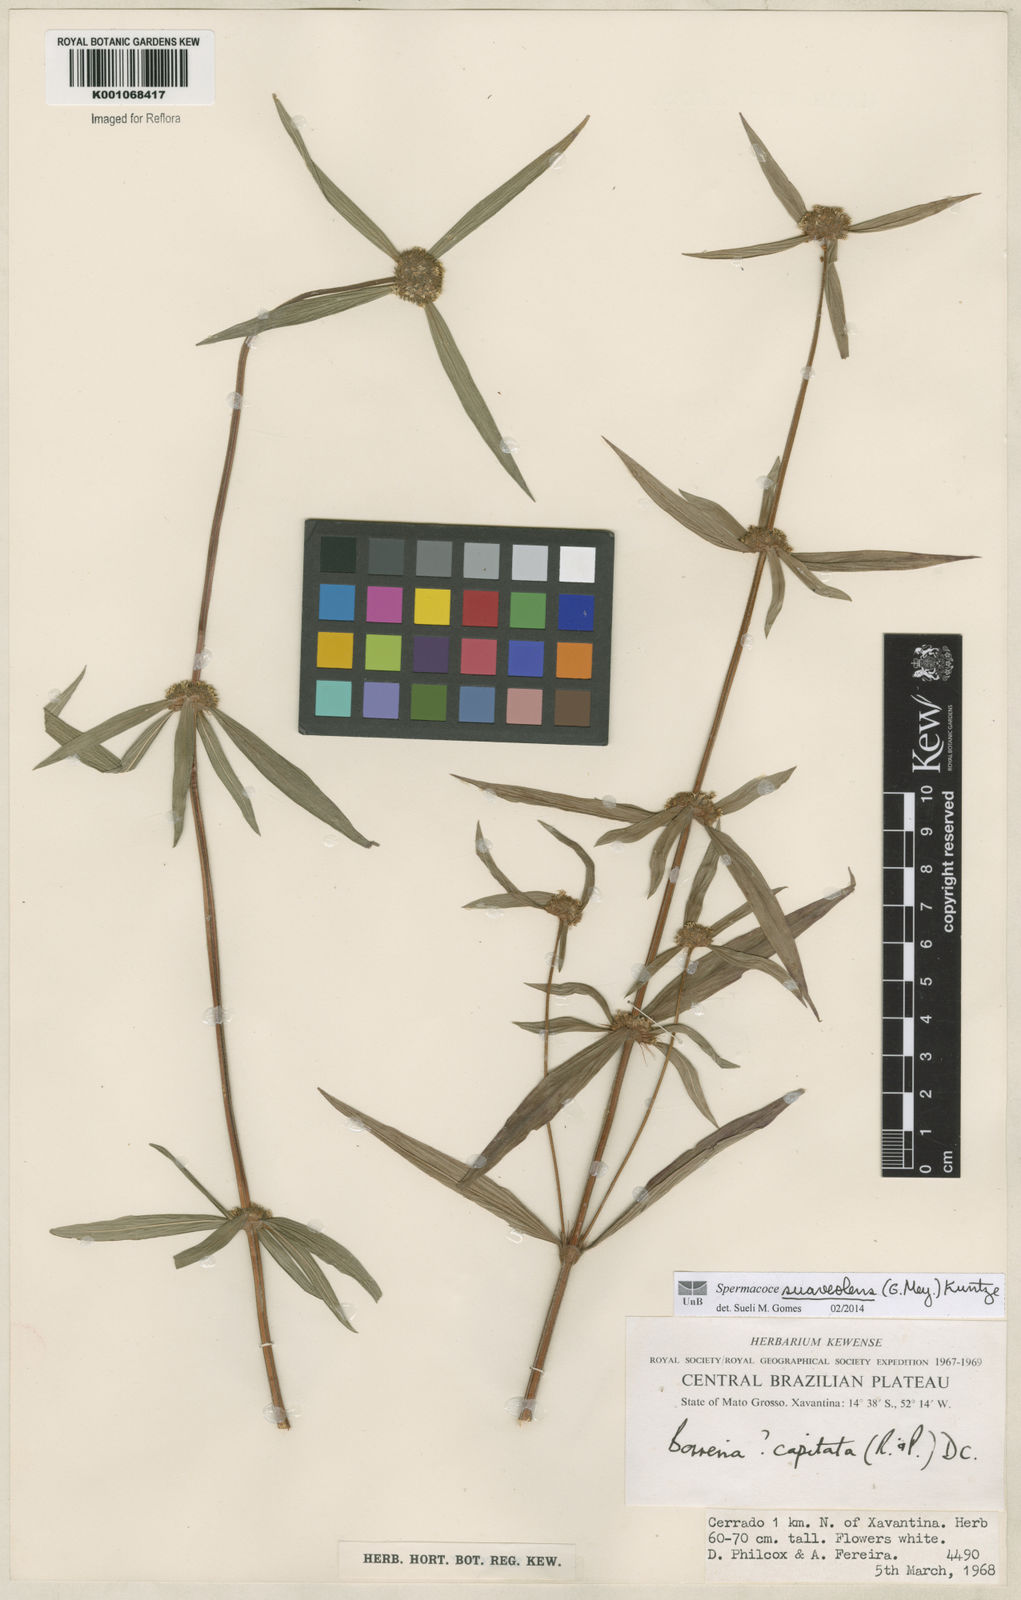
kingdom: Plantae
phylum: Tracheophyta
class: Magnoliopsida
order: Gentianales
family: Rubiaceae
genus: Spermacoce
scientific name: Spermacoce suaveolens
